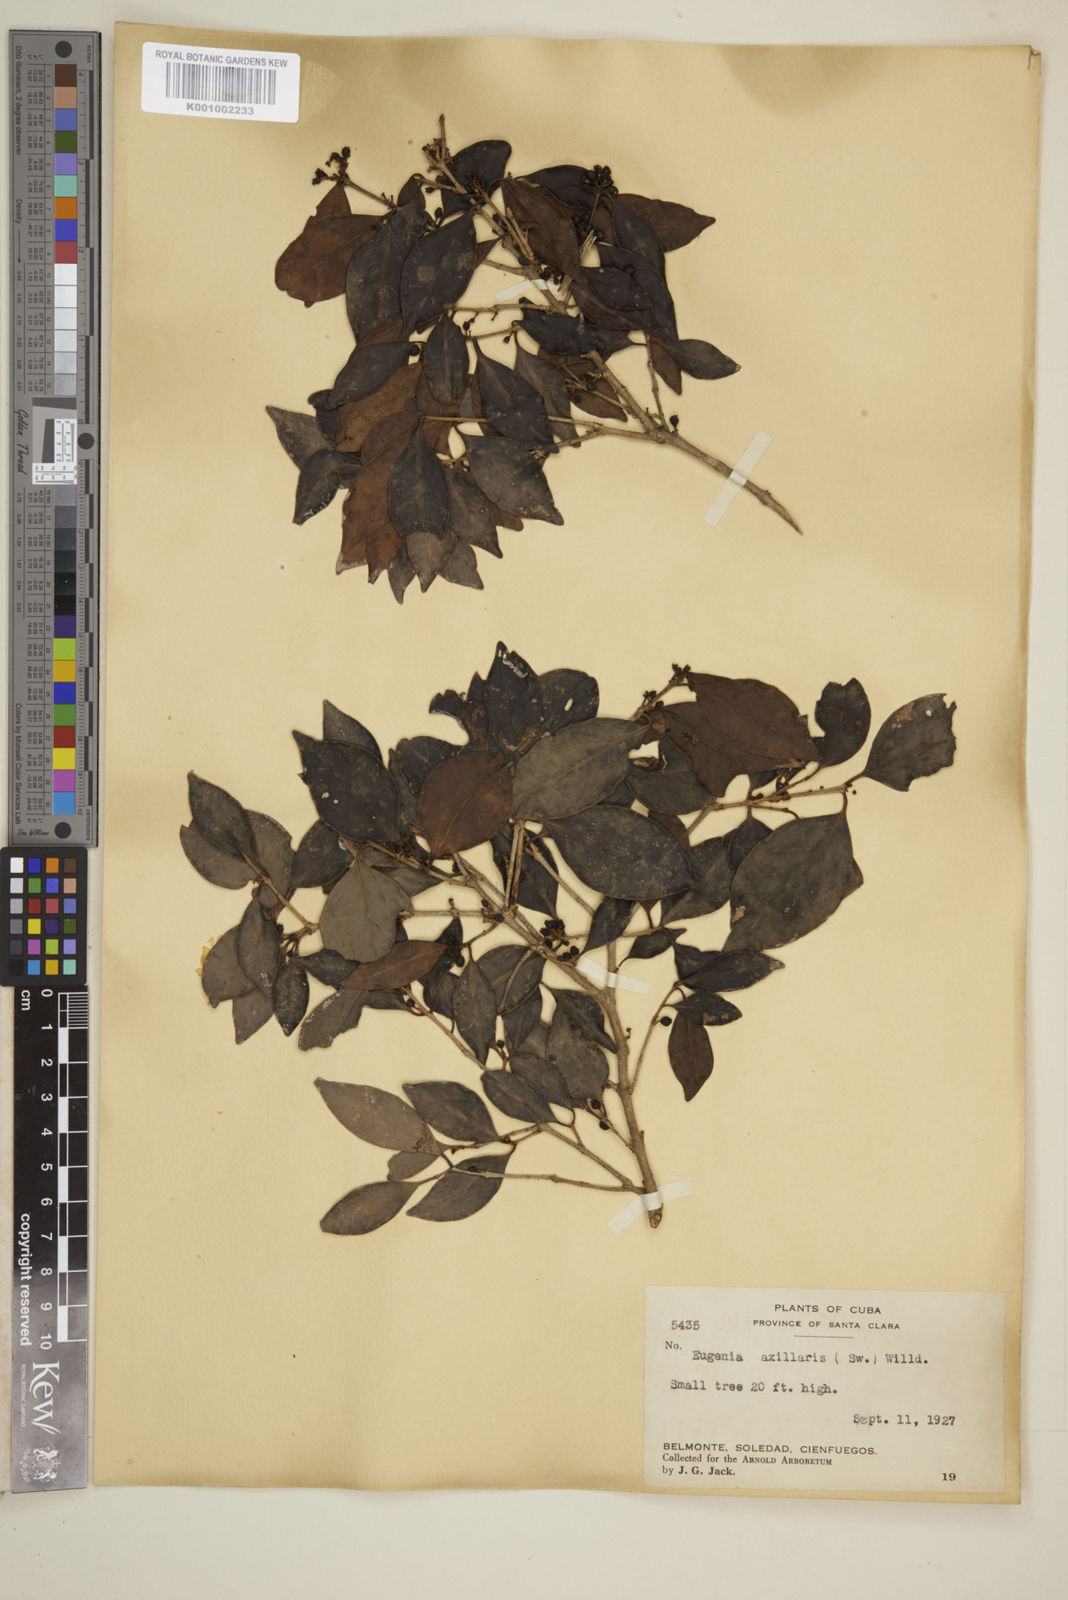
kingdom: Plantae
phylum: Tracheophyta
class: Magnoliopsida
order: Myrtales
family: Myrtaceae
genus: Eugenia
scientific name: Eugenia axillaris
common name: Choaky berry
